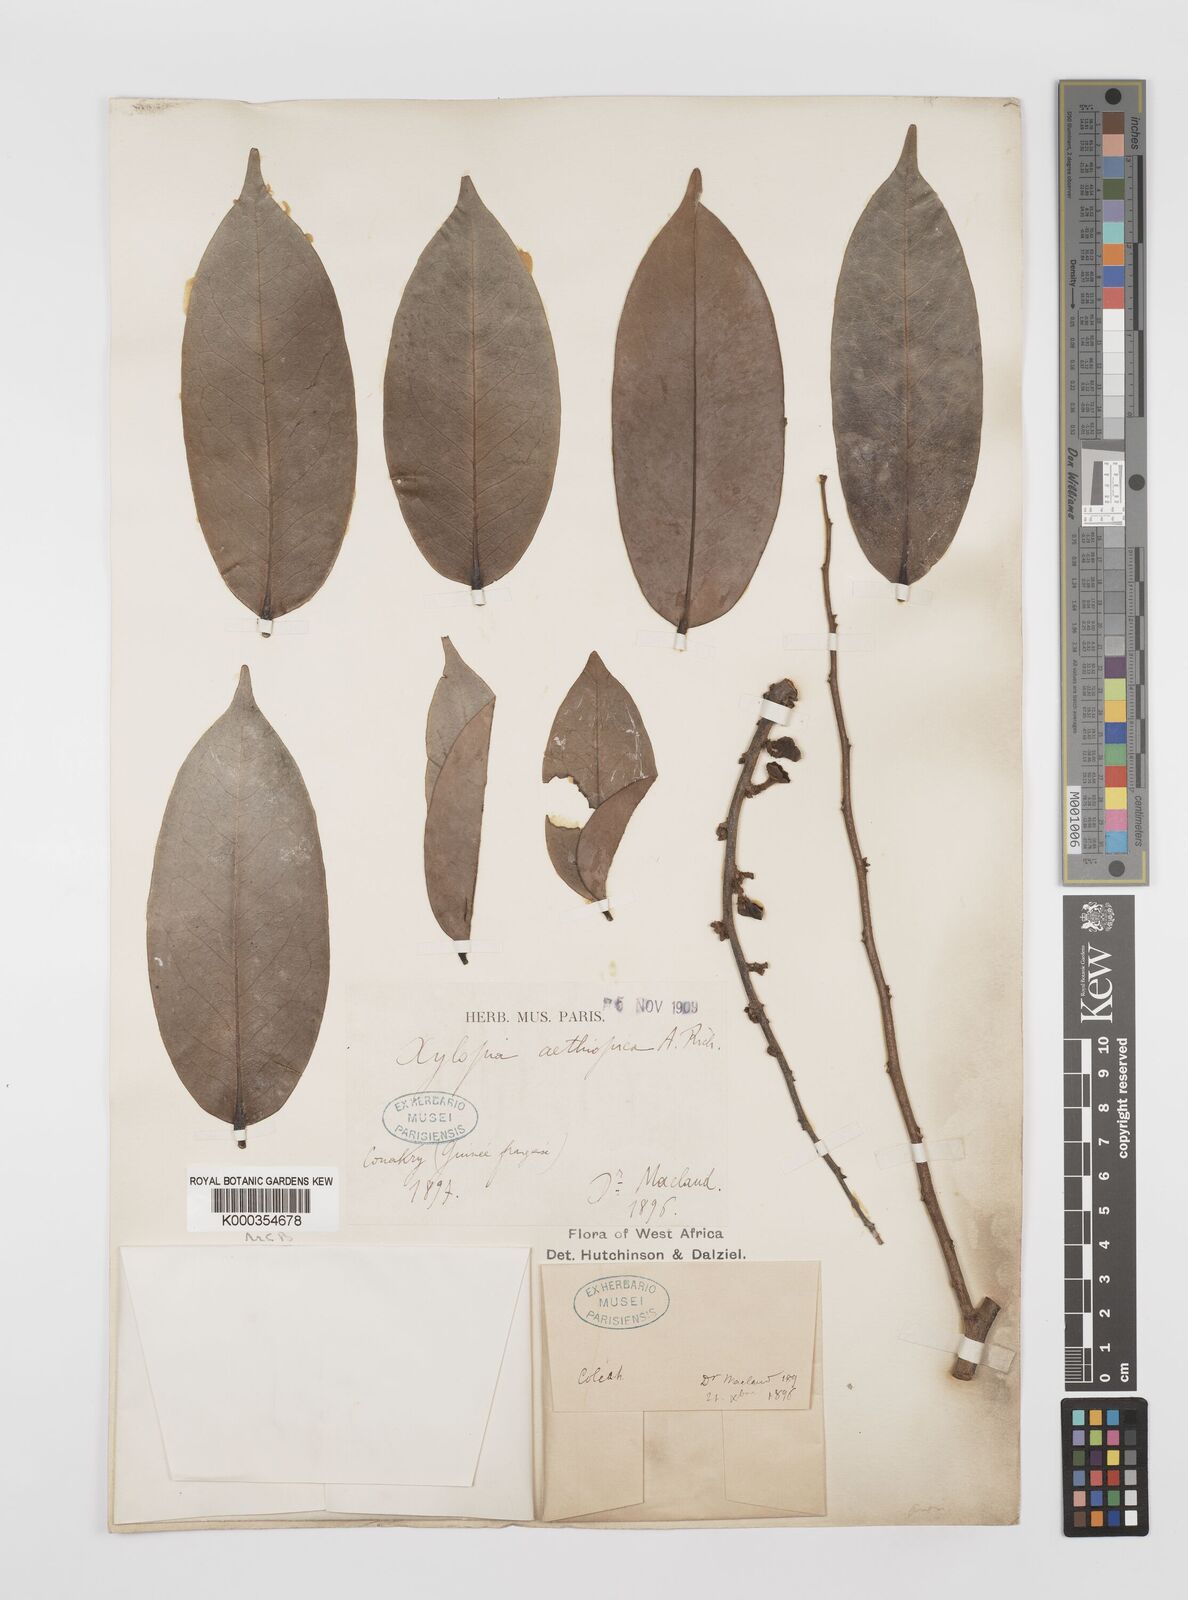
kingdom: Plantae
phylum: Tracheophyta
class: Magnoliopsida
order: Magnoliales
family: Annonaceae
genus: Xylopia
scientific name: Xylopia aethiopica
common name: Ethiopian-pepper
